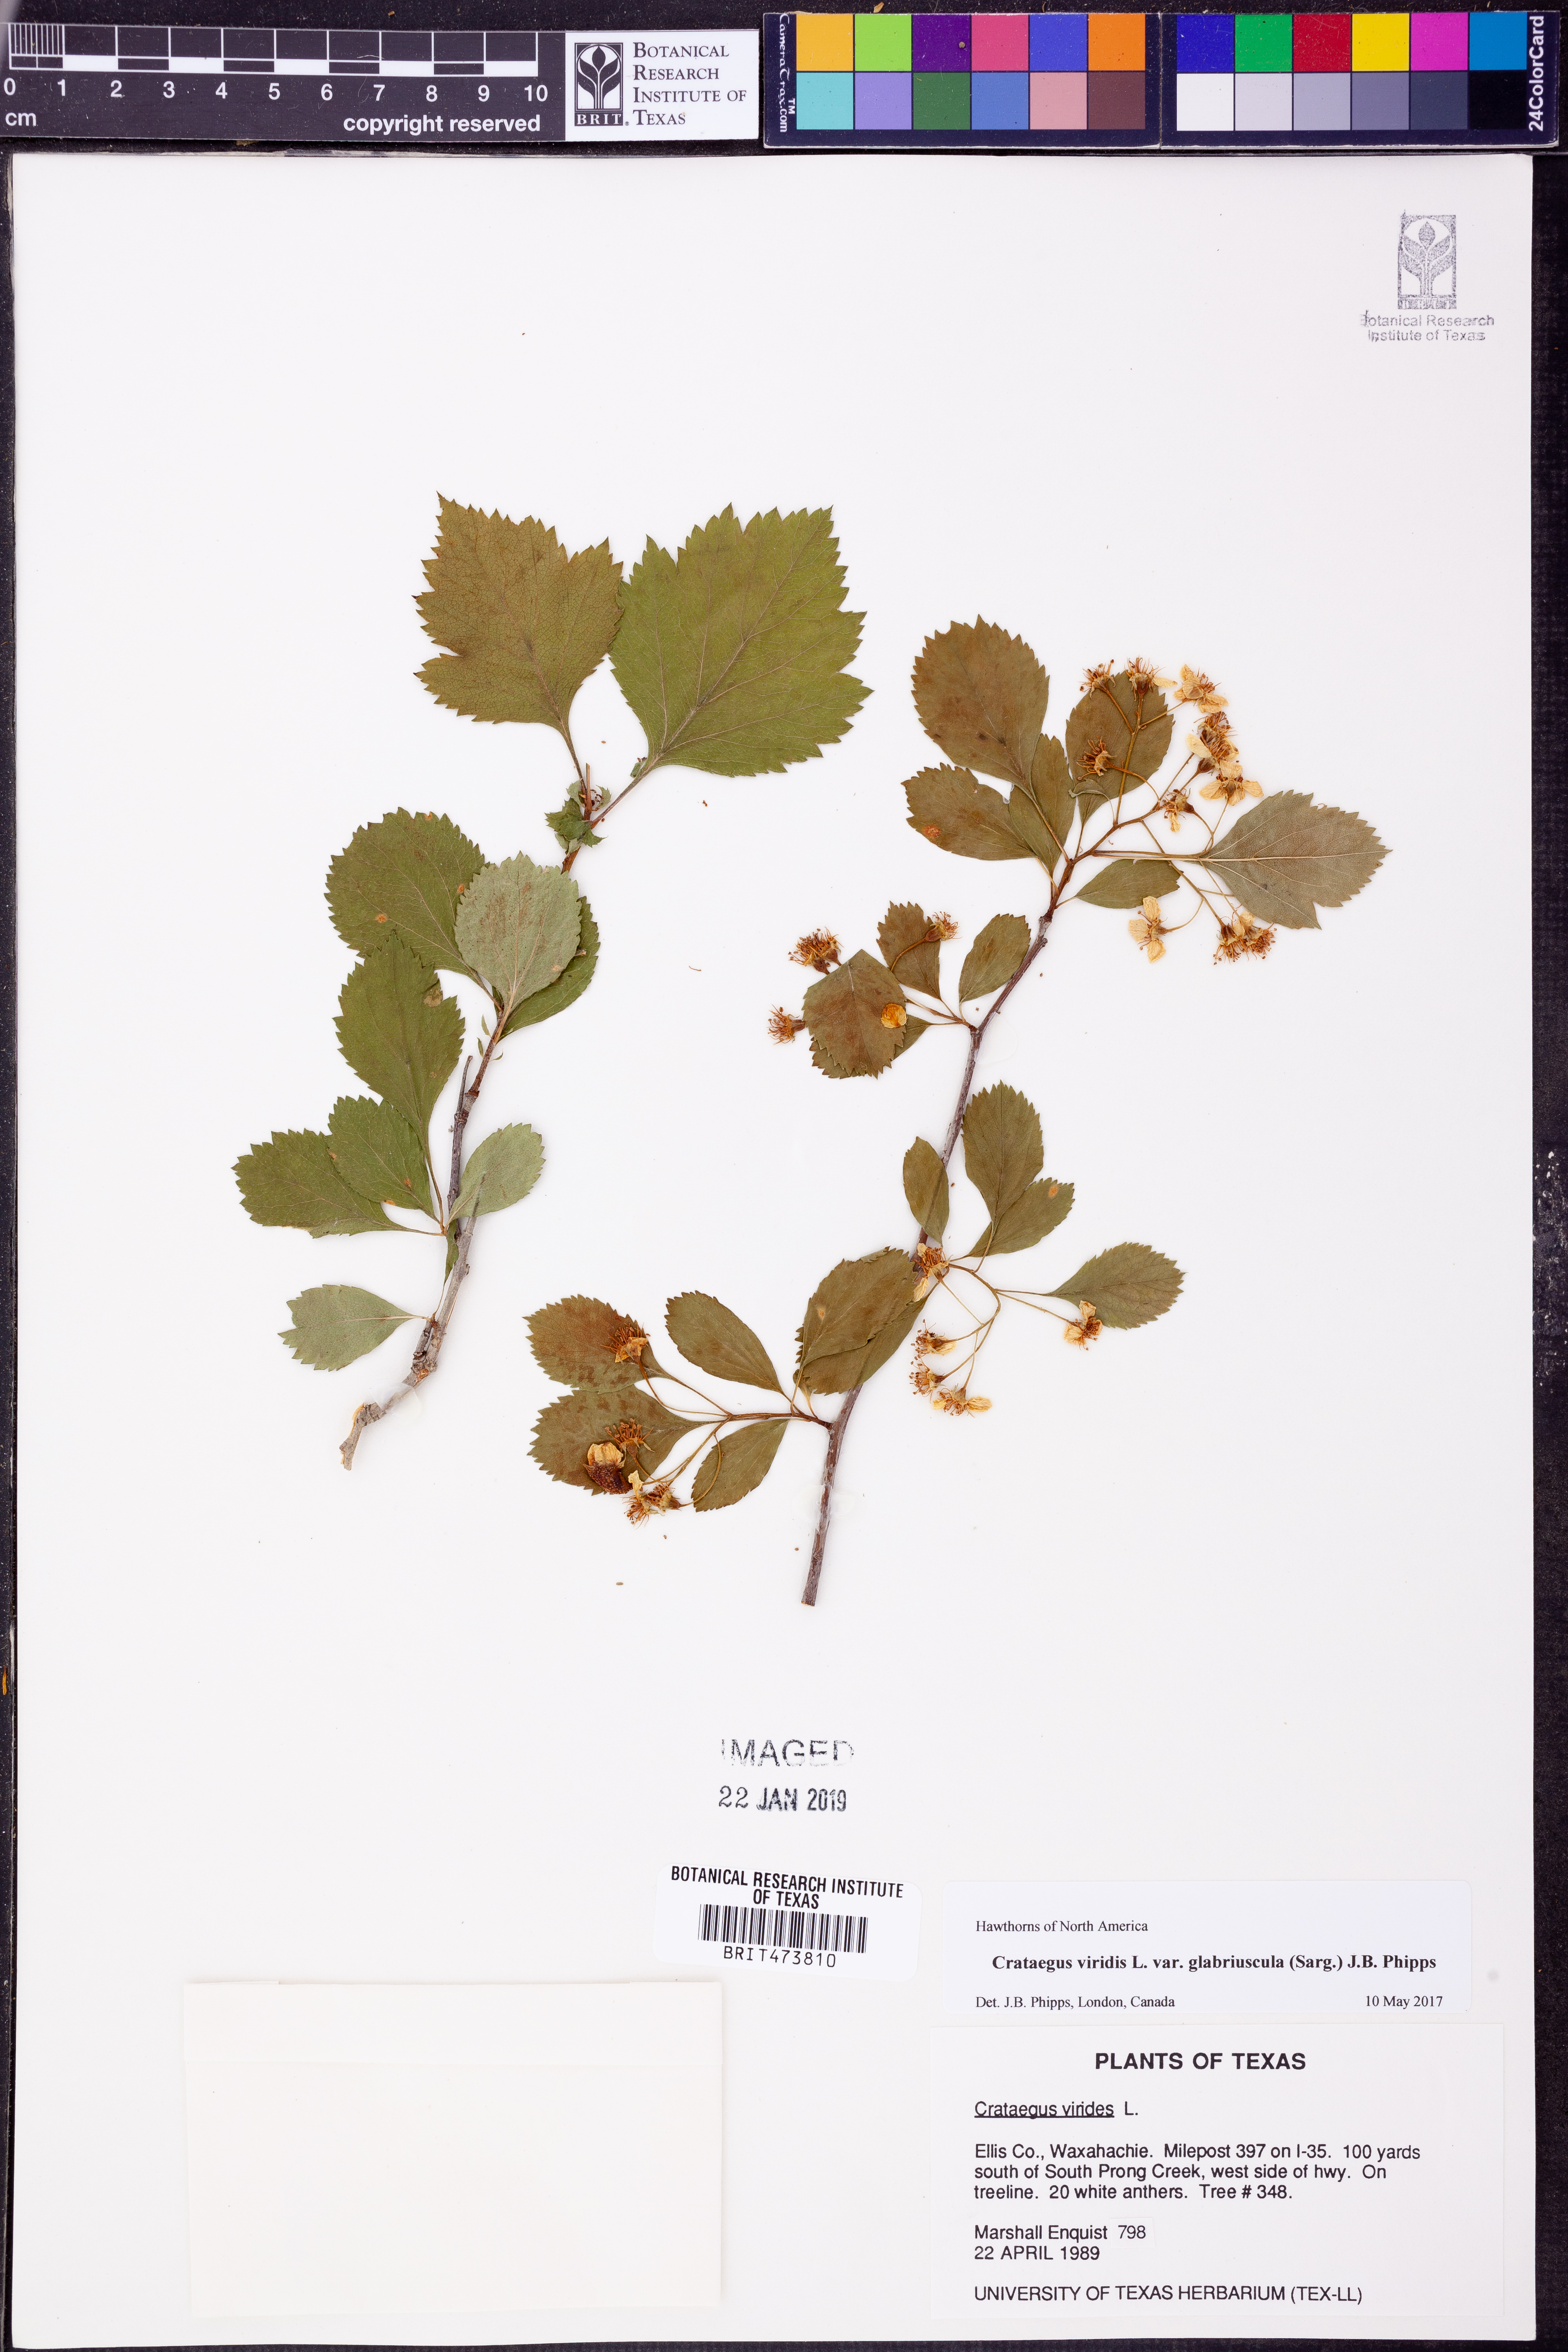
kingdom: Plantae
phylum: Tracheophyta
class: Magnoliopsida
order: Rosales
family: Rosaceae
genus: Crataegus
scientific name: Crataegus viridis
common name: Southernthorn
